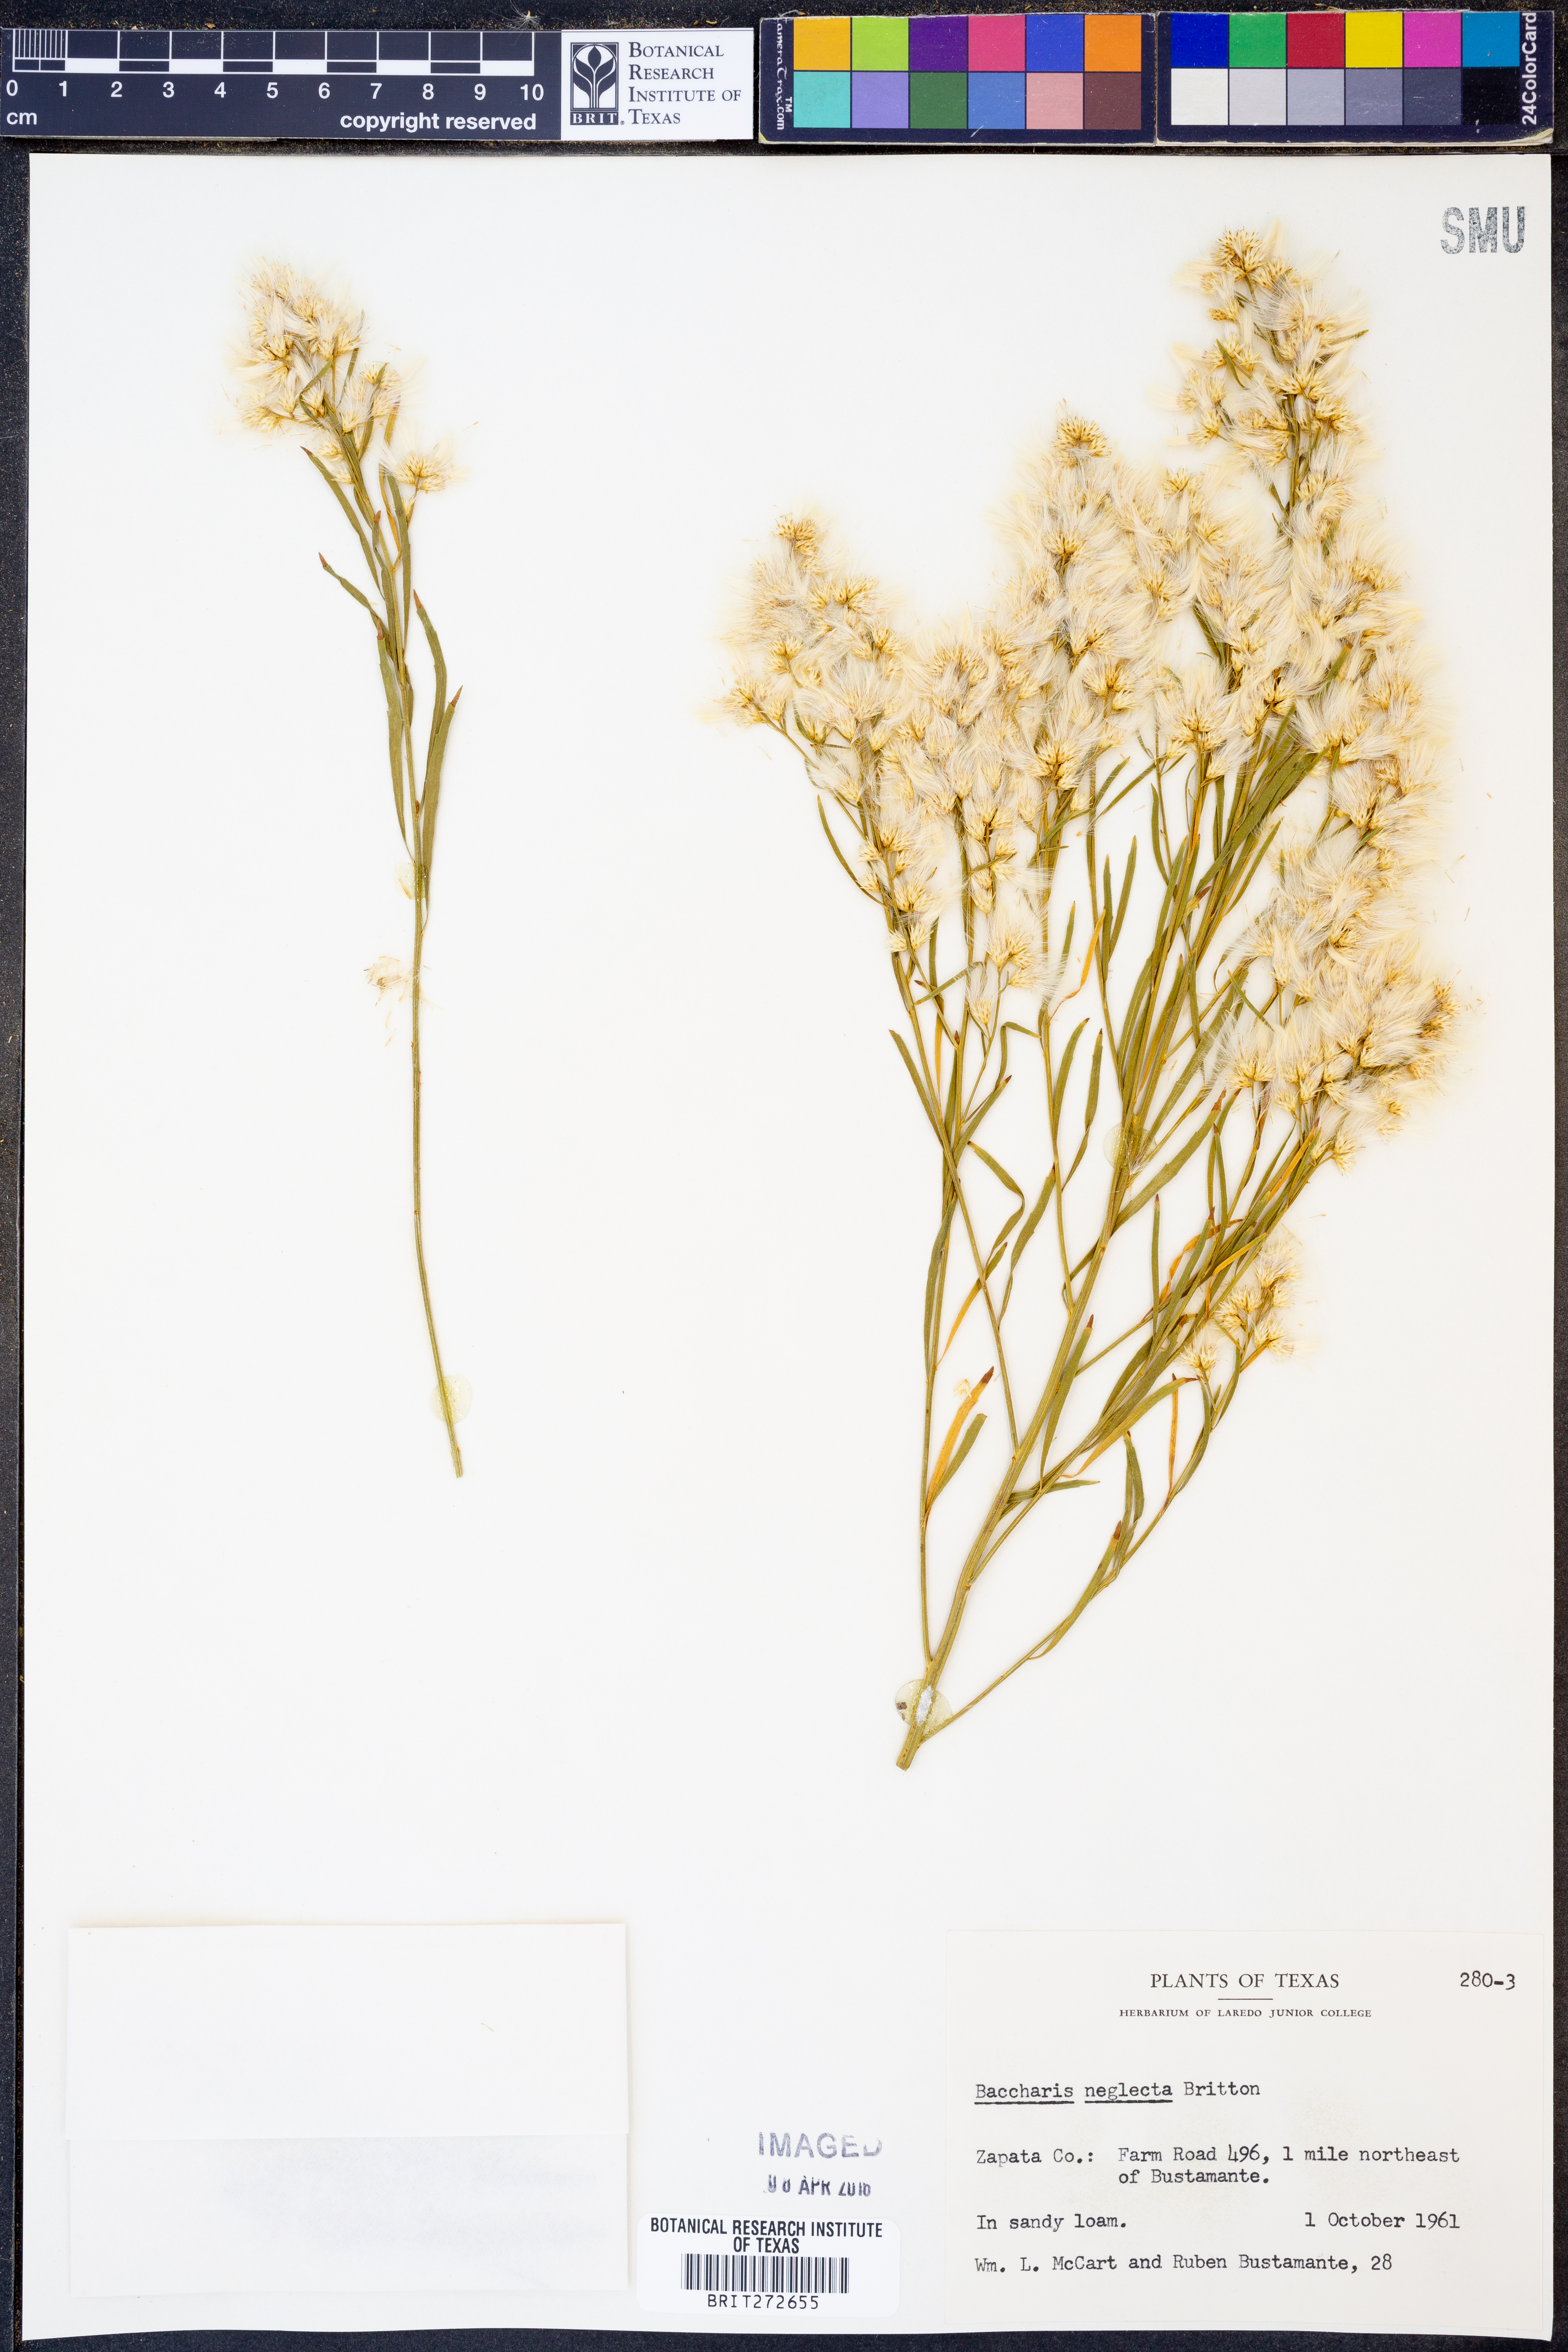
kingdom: Plantae
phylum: Tracheophyta
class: Magnoliopsida
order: Asterales
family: Asteraceae
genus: Baccharis
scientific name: Baccharis neglecta
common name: Roosevelt-weed
